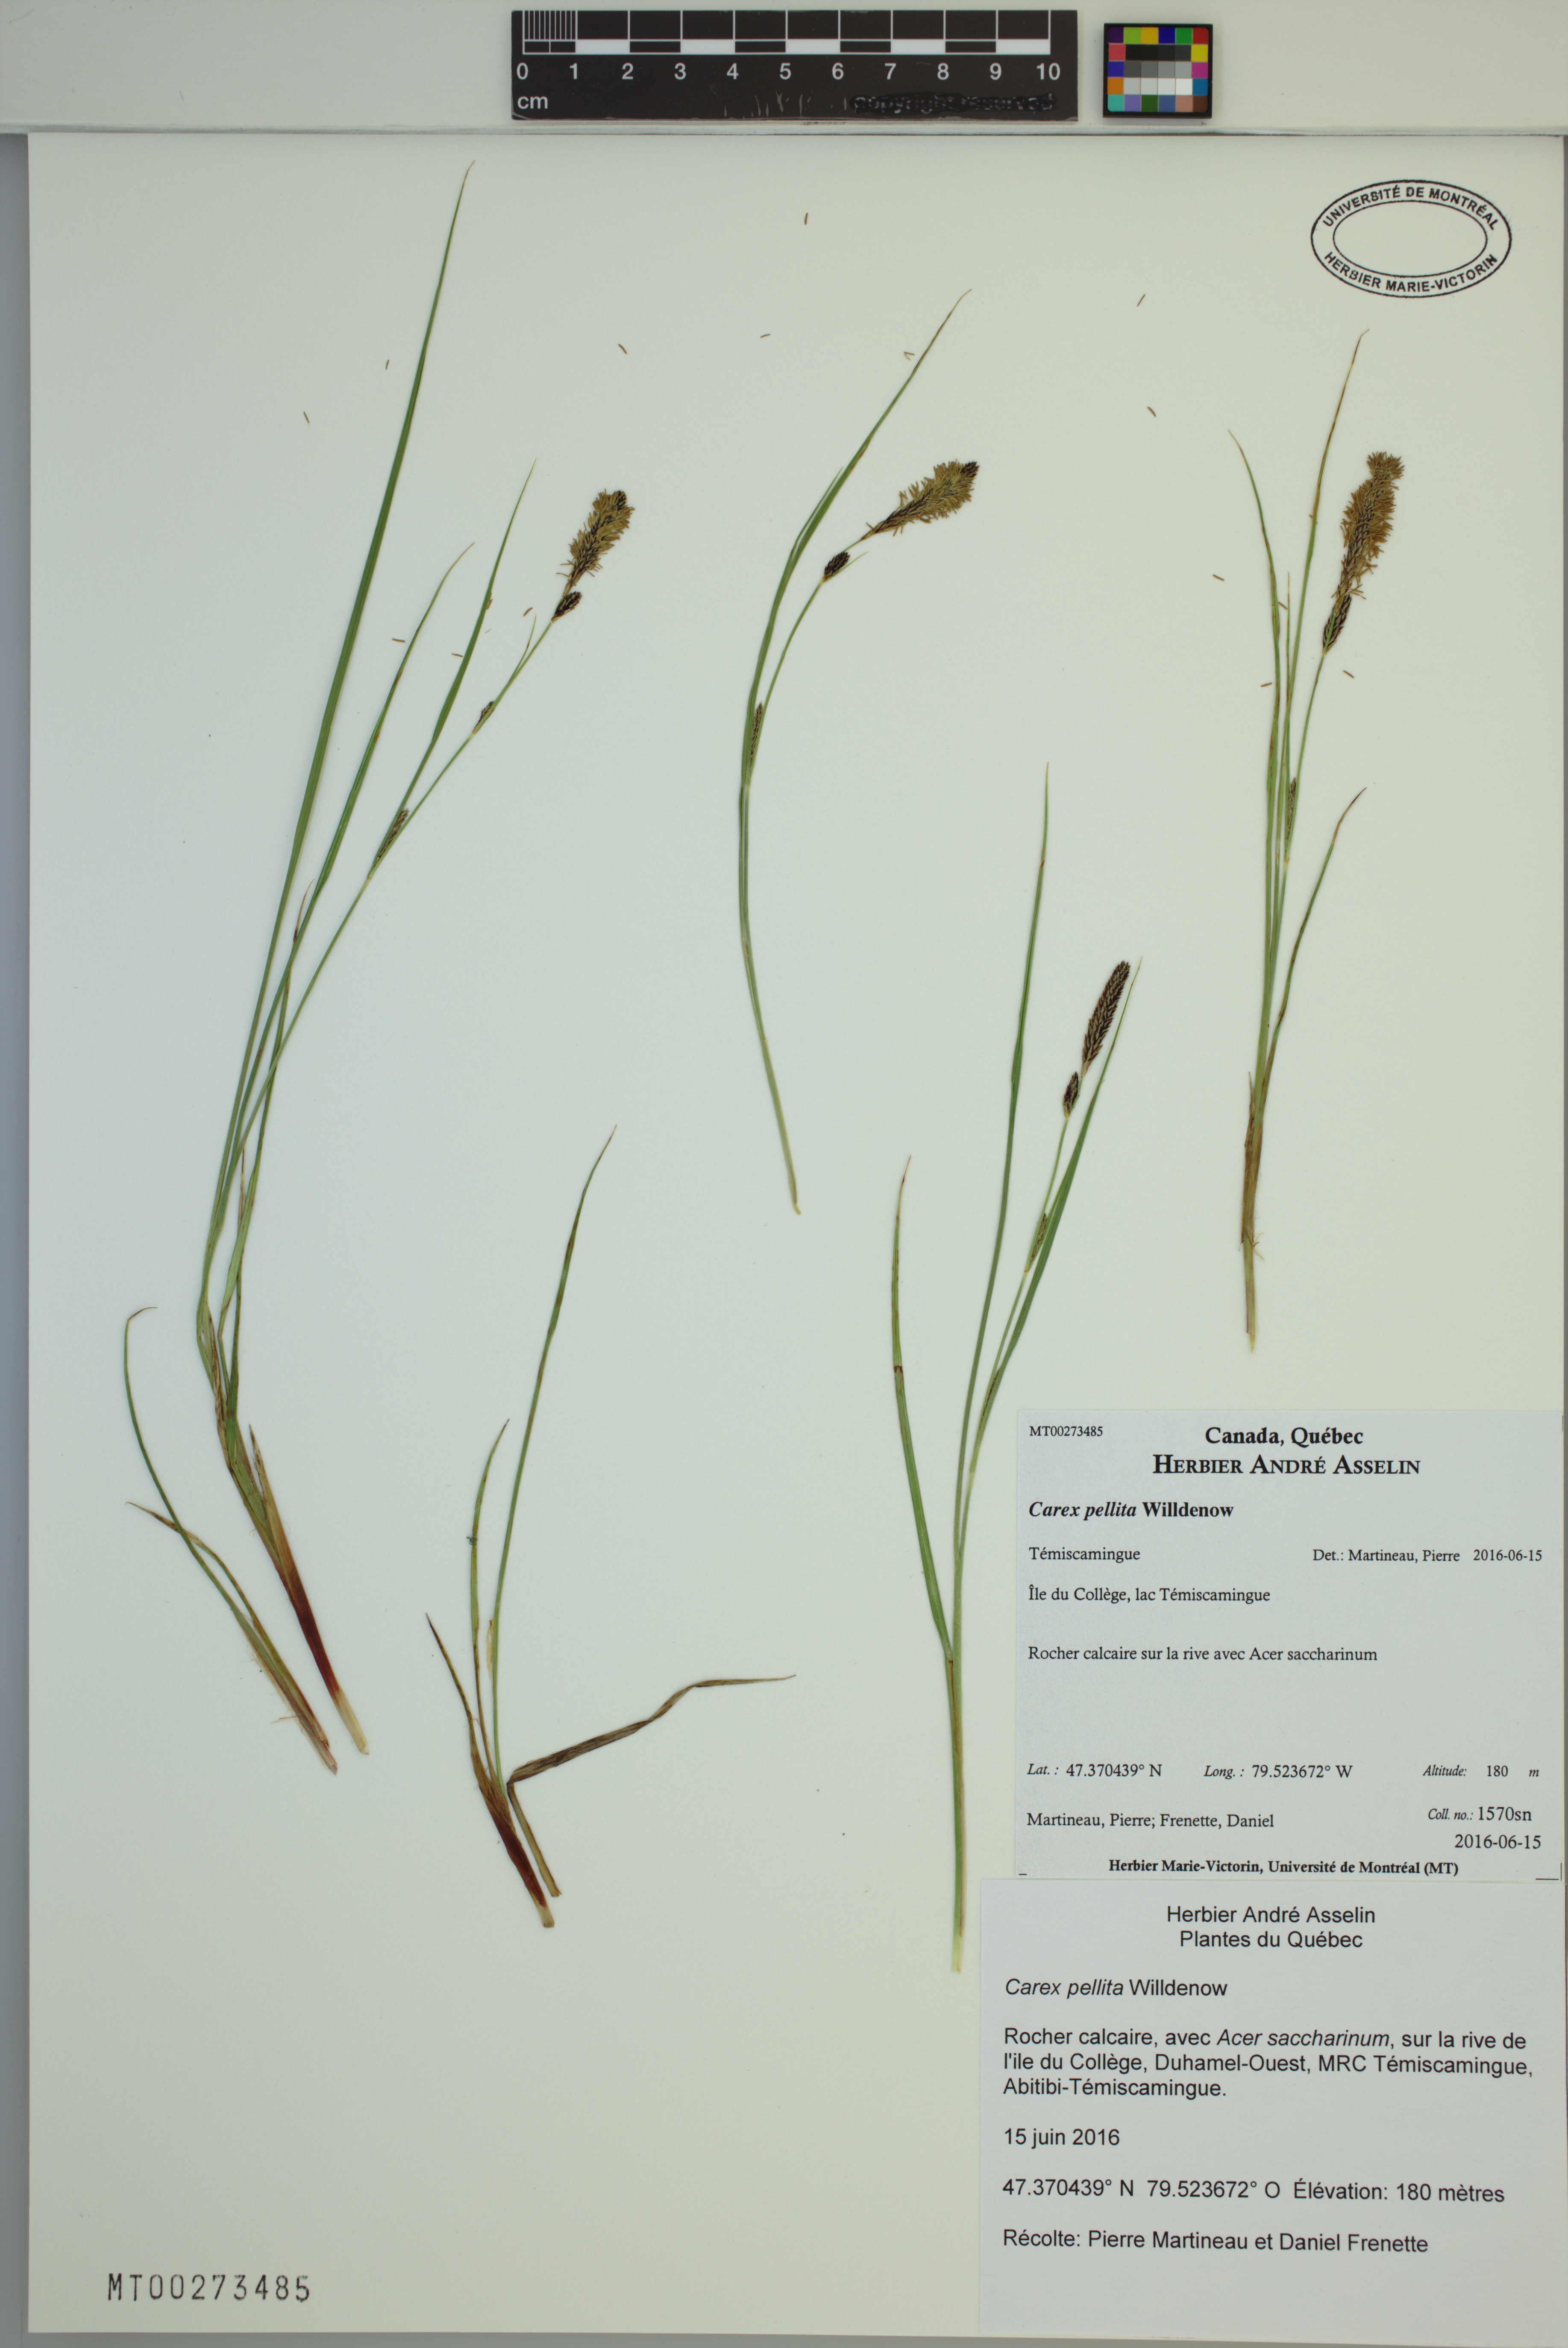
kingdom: Plantae
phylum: Tracheophyta
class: Liliopsida
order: Poales
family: Cyperaceae
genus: Carex
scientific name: Carex pellita
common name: Woolly sedge
